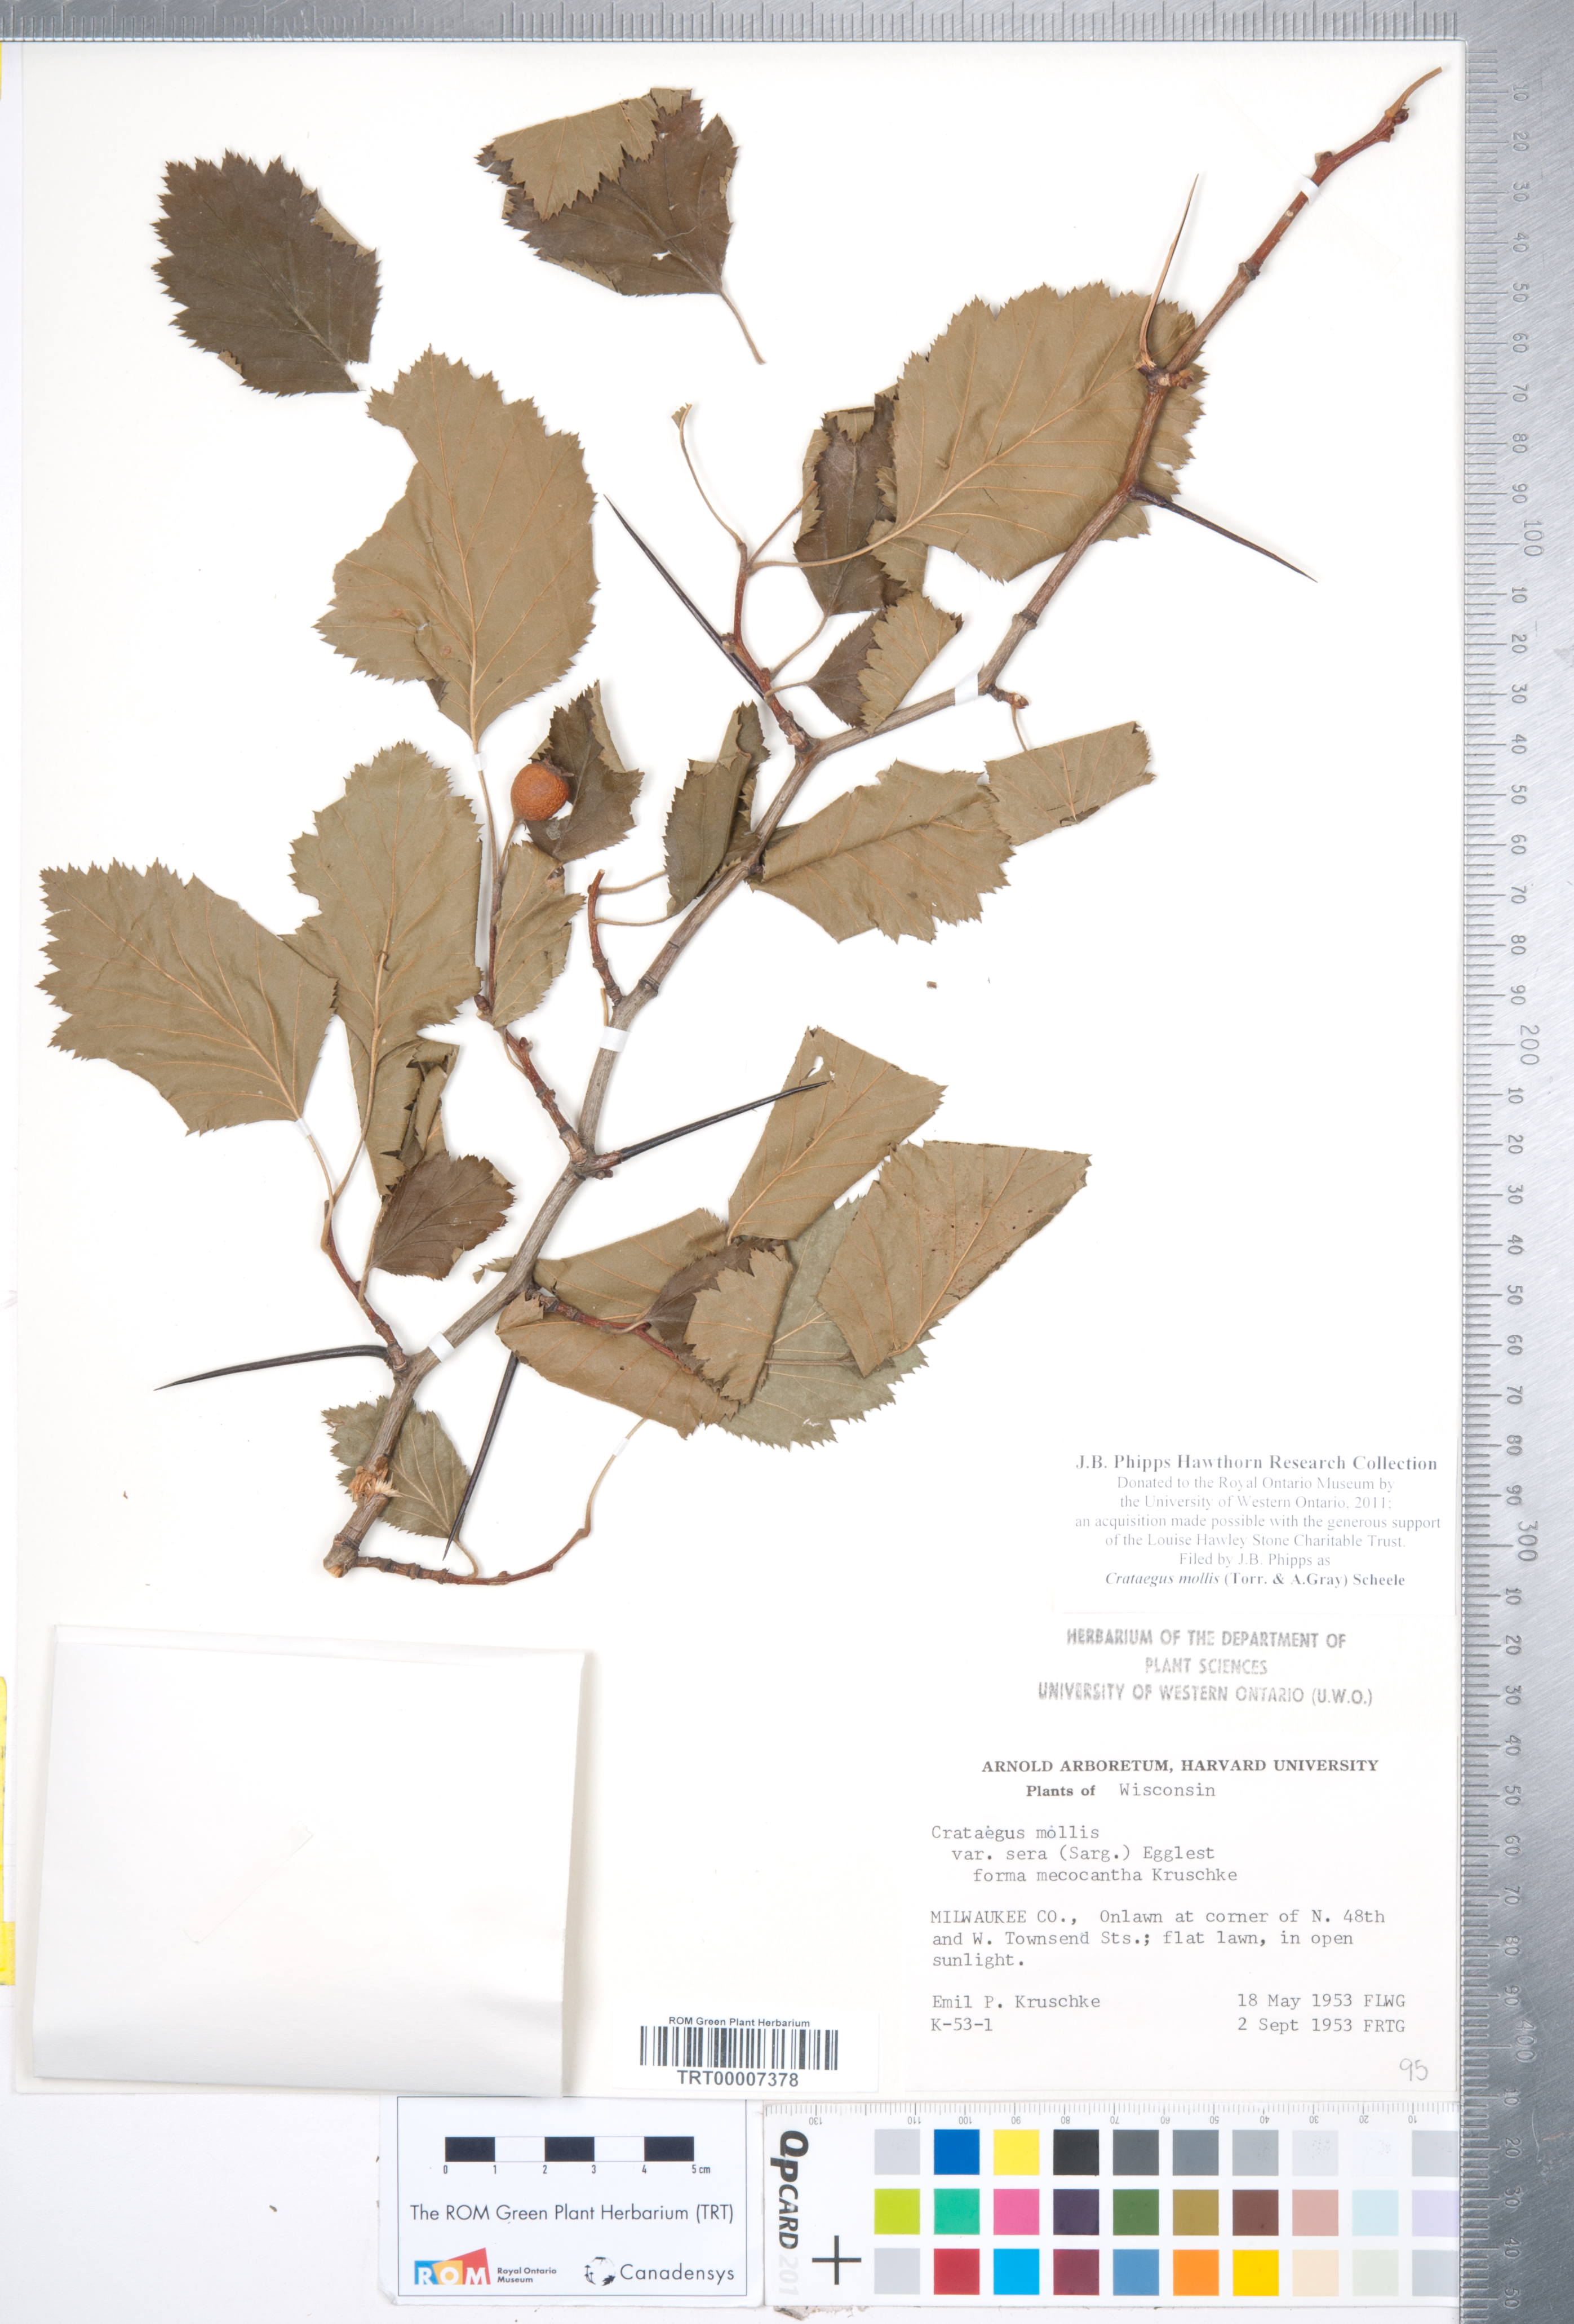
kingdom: Plantae
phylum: Tracheophyta
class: Magnoliopsida
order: Rosales
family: Rosaceae
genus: Crataegus
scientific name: Crataegus mollis
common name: Downy hawthorn
